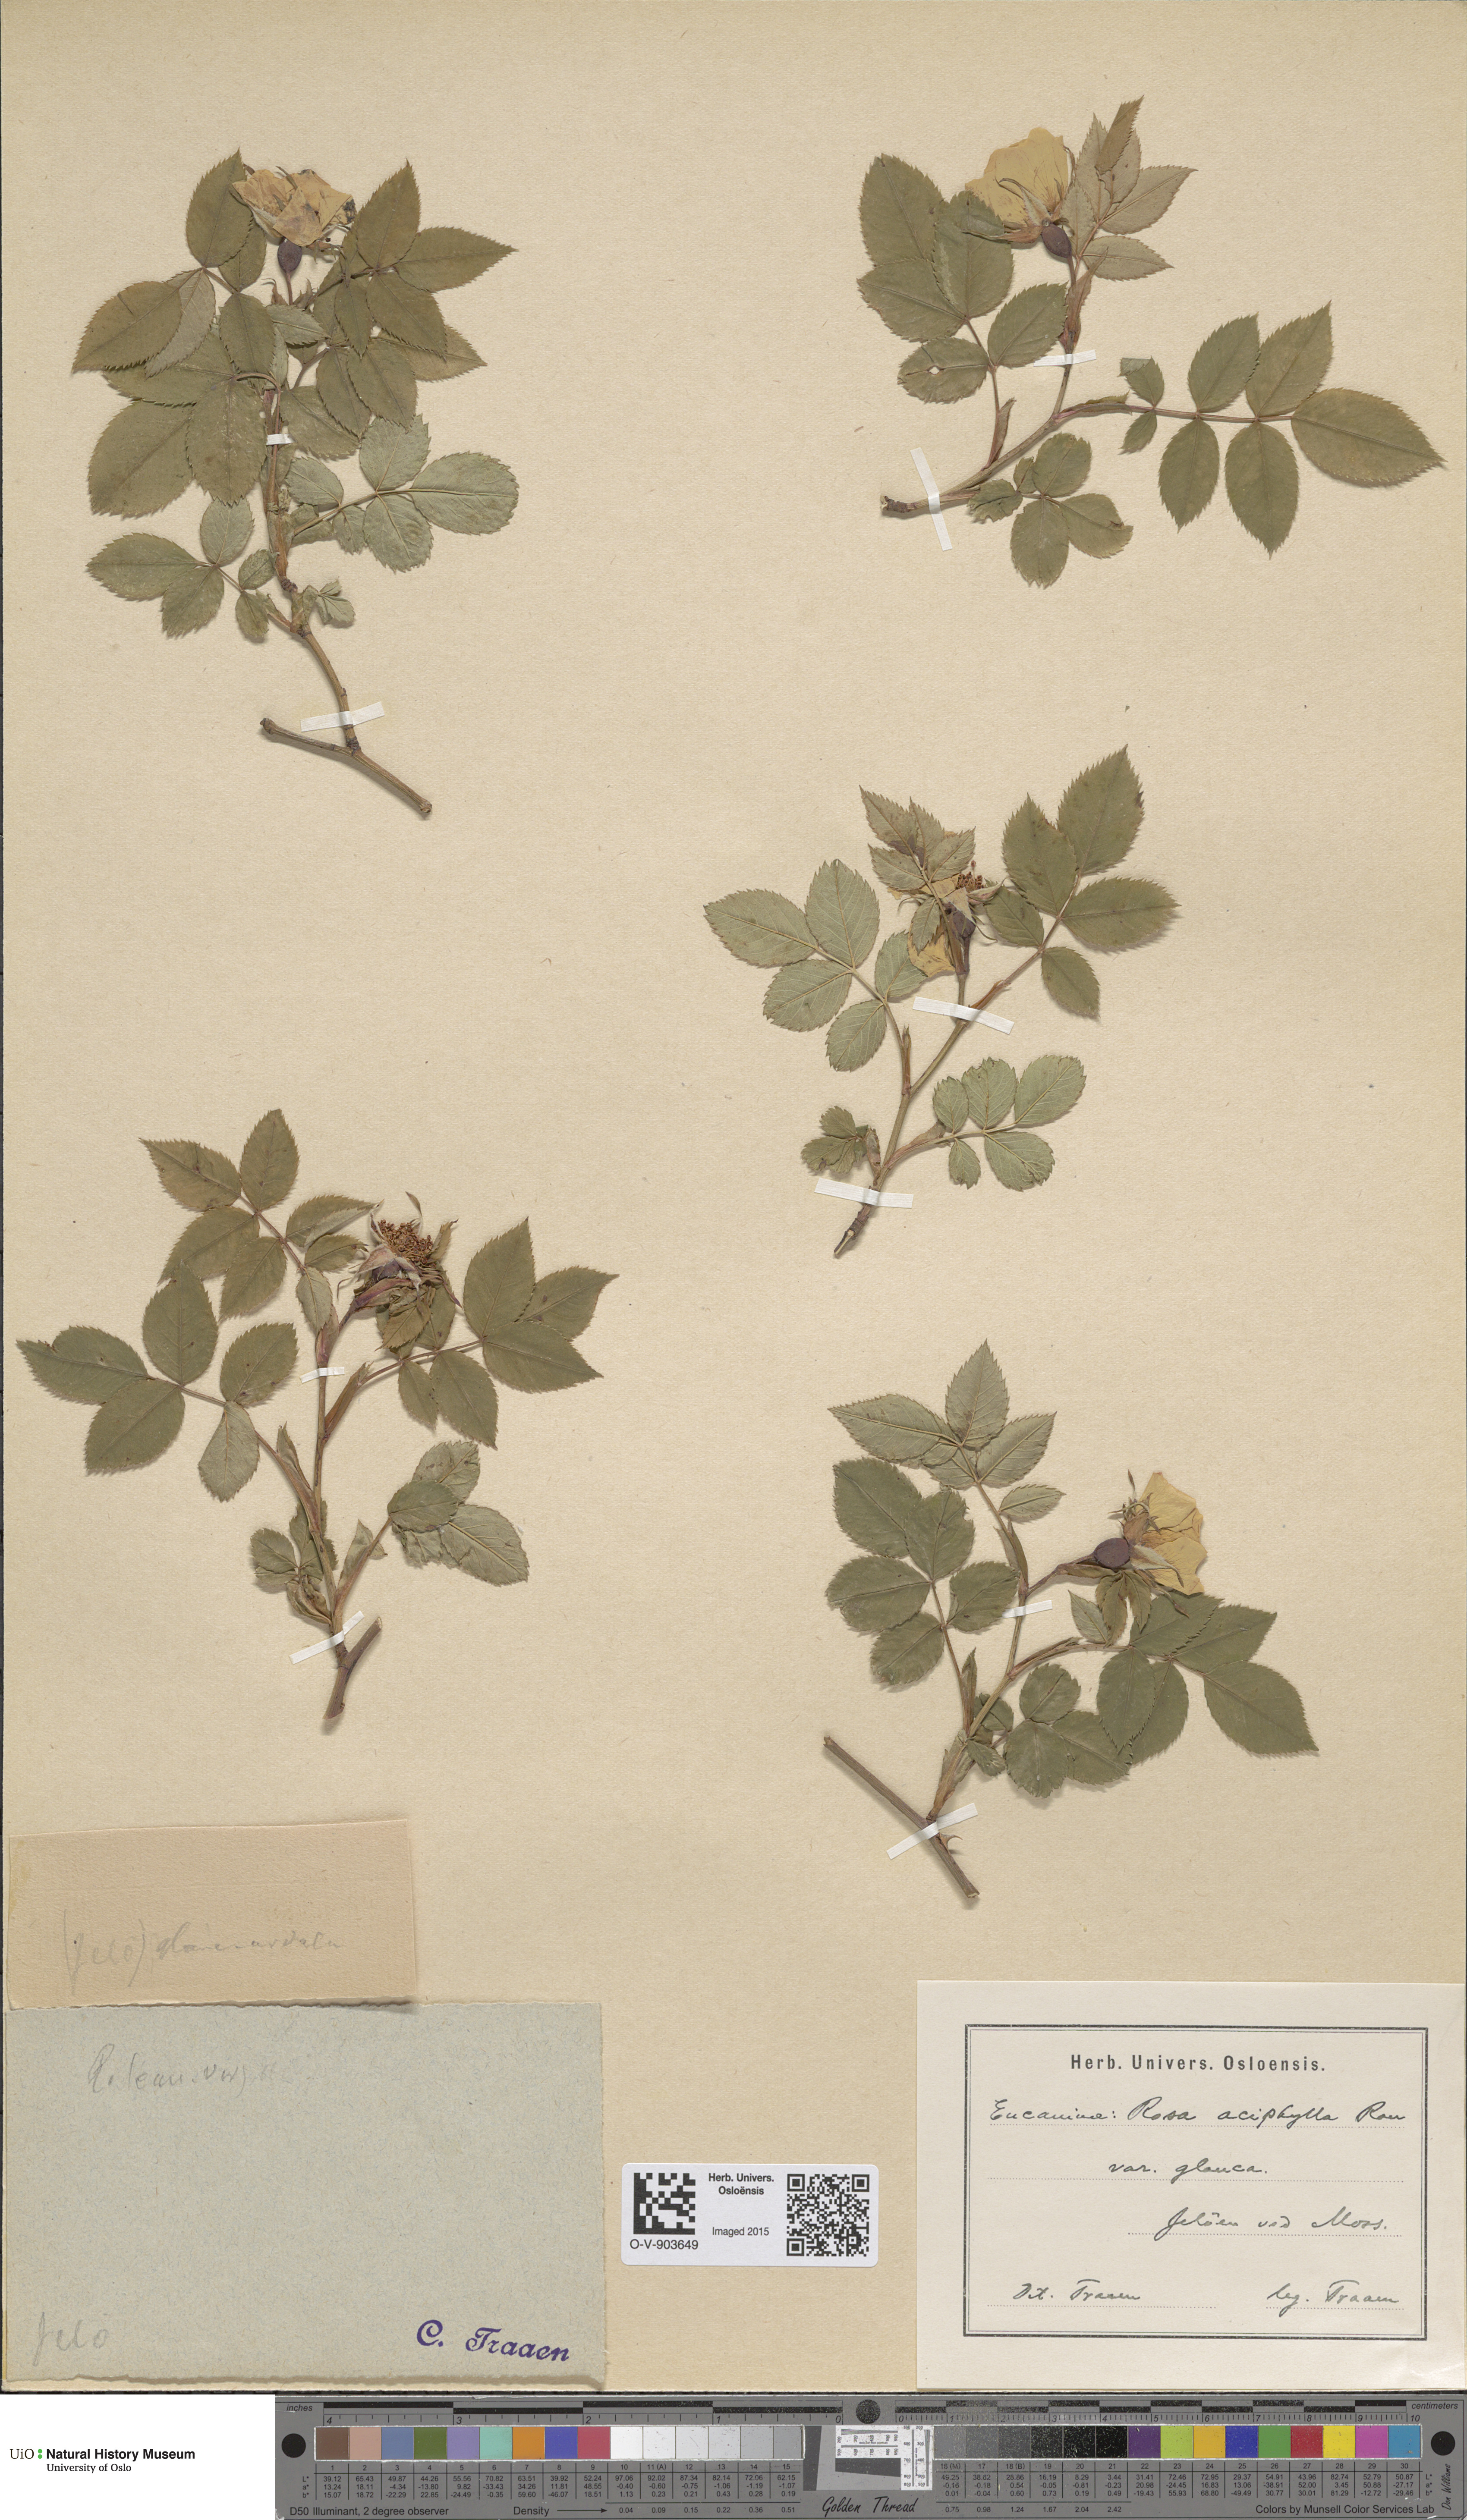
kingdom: Plantae
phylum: Tracheophyta
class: Magnoliopsida
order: Rosales
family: Rosaceae
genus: Rosa
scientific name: Rosa canina
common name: Dog rose
